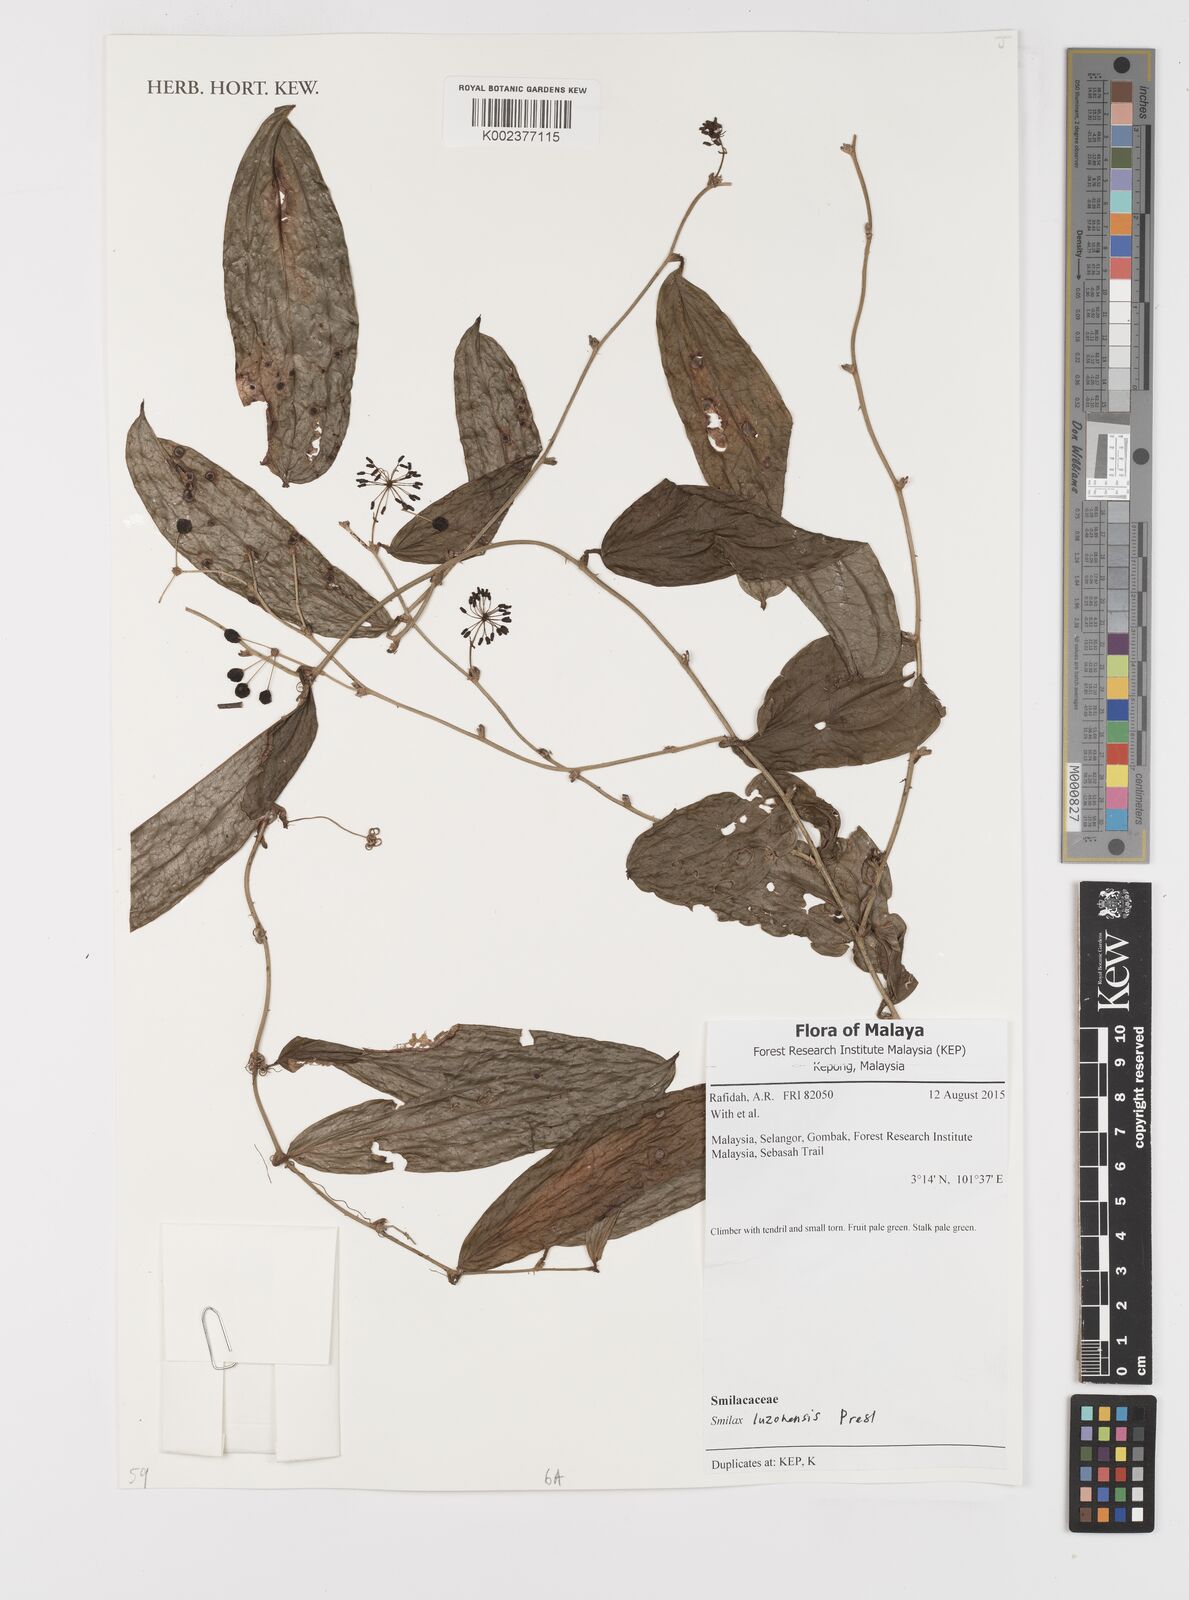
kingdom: Plantae
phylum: Tracheophyta
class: Liliopsida
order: Liliales
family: Smilacaceae
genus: Smilax
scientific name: Smilax luzonensis
